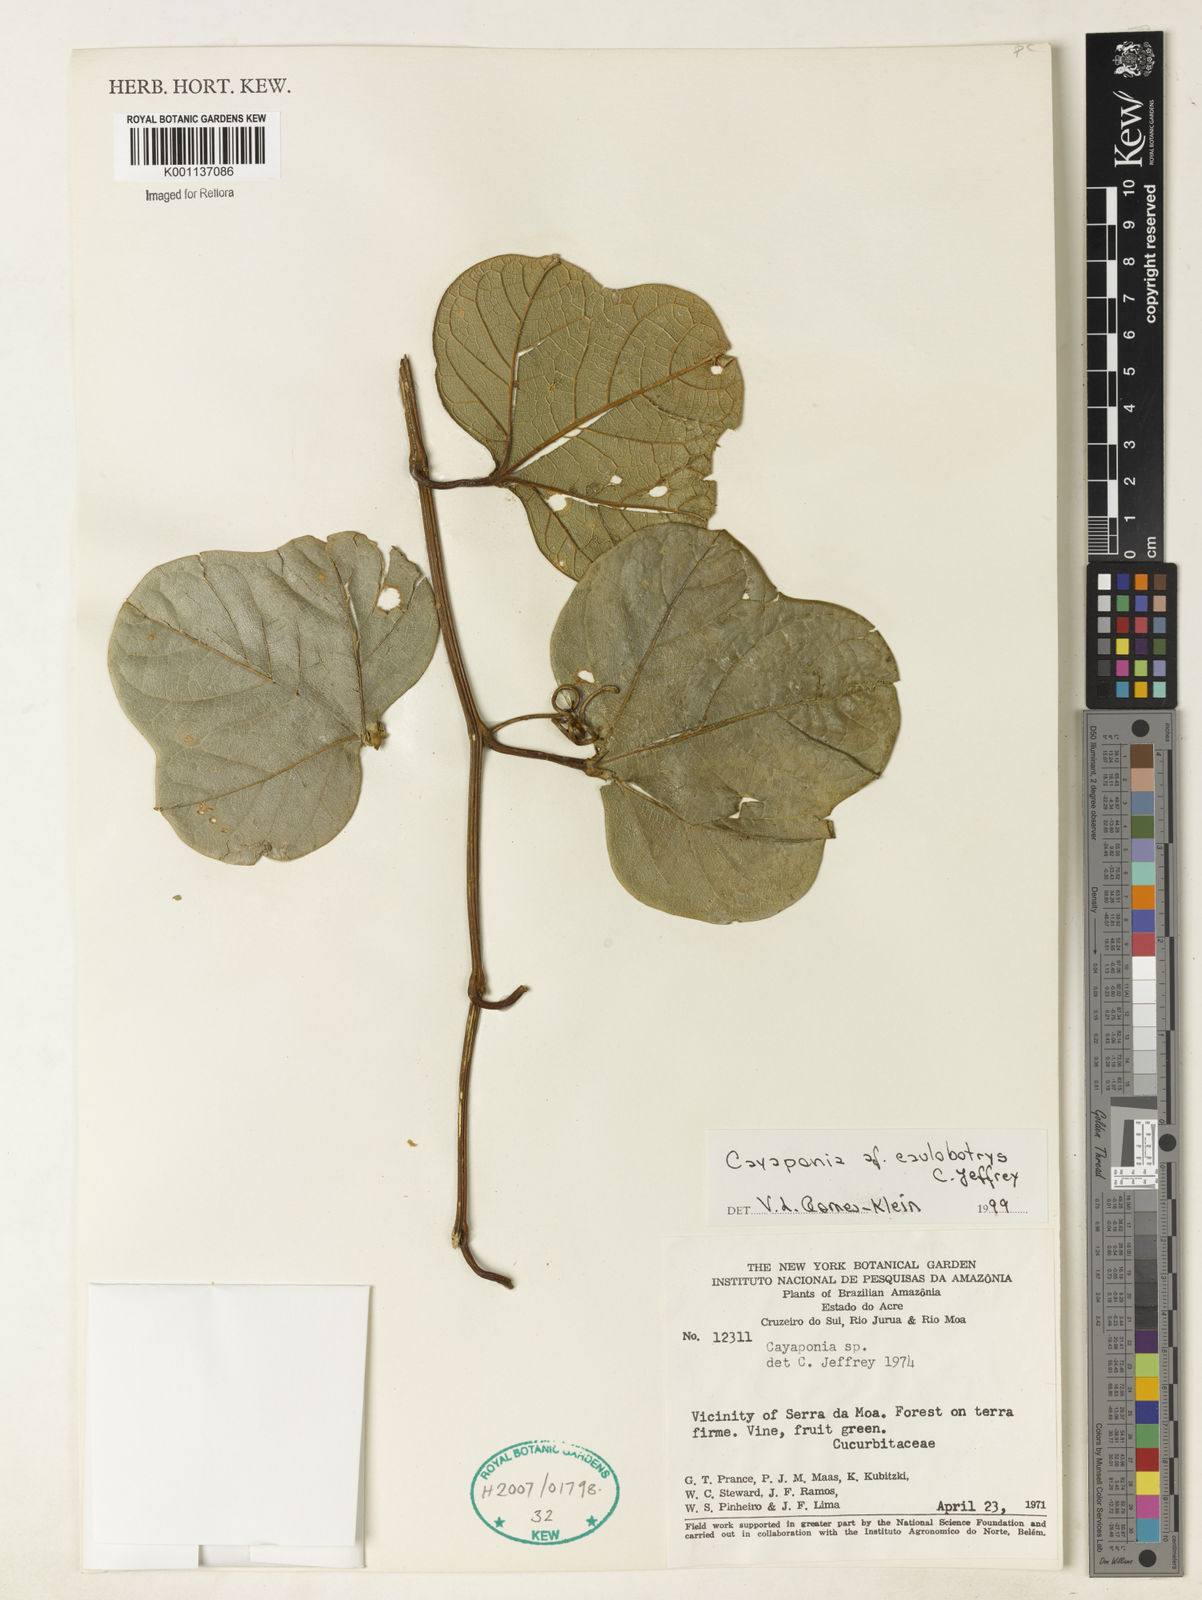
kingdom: Plantae
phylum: Tracheophyta
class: Magnoliopsida
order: Cucurbitales
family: Cucurbitaceae
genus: Cayaponia
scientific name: Cayaponia caulobotrys
